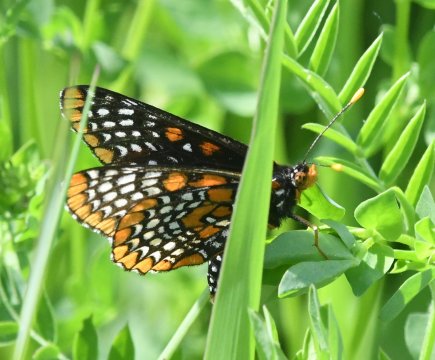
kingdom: Animalia
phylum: Arthropoda
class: Insecta
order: Lepidoptera
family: Nymphalidae
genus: Euphydryas
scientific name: Euphydryas phaeton
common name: Baltimore Checkerspot
